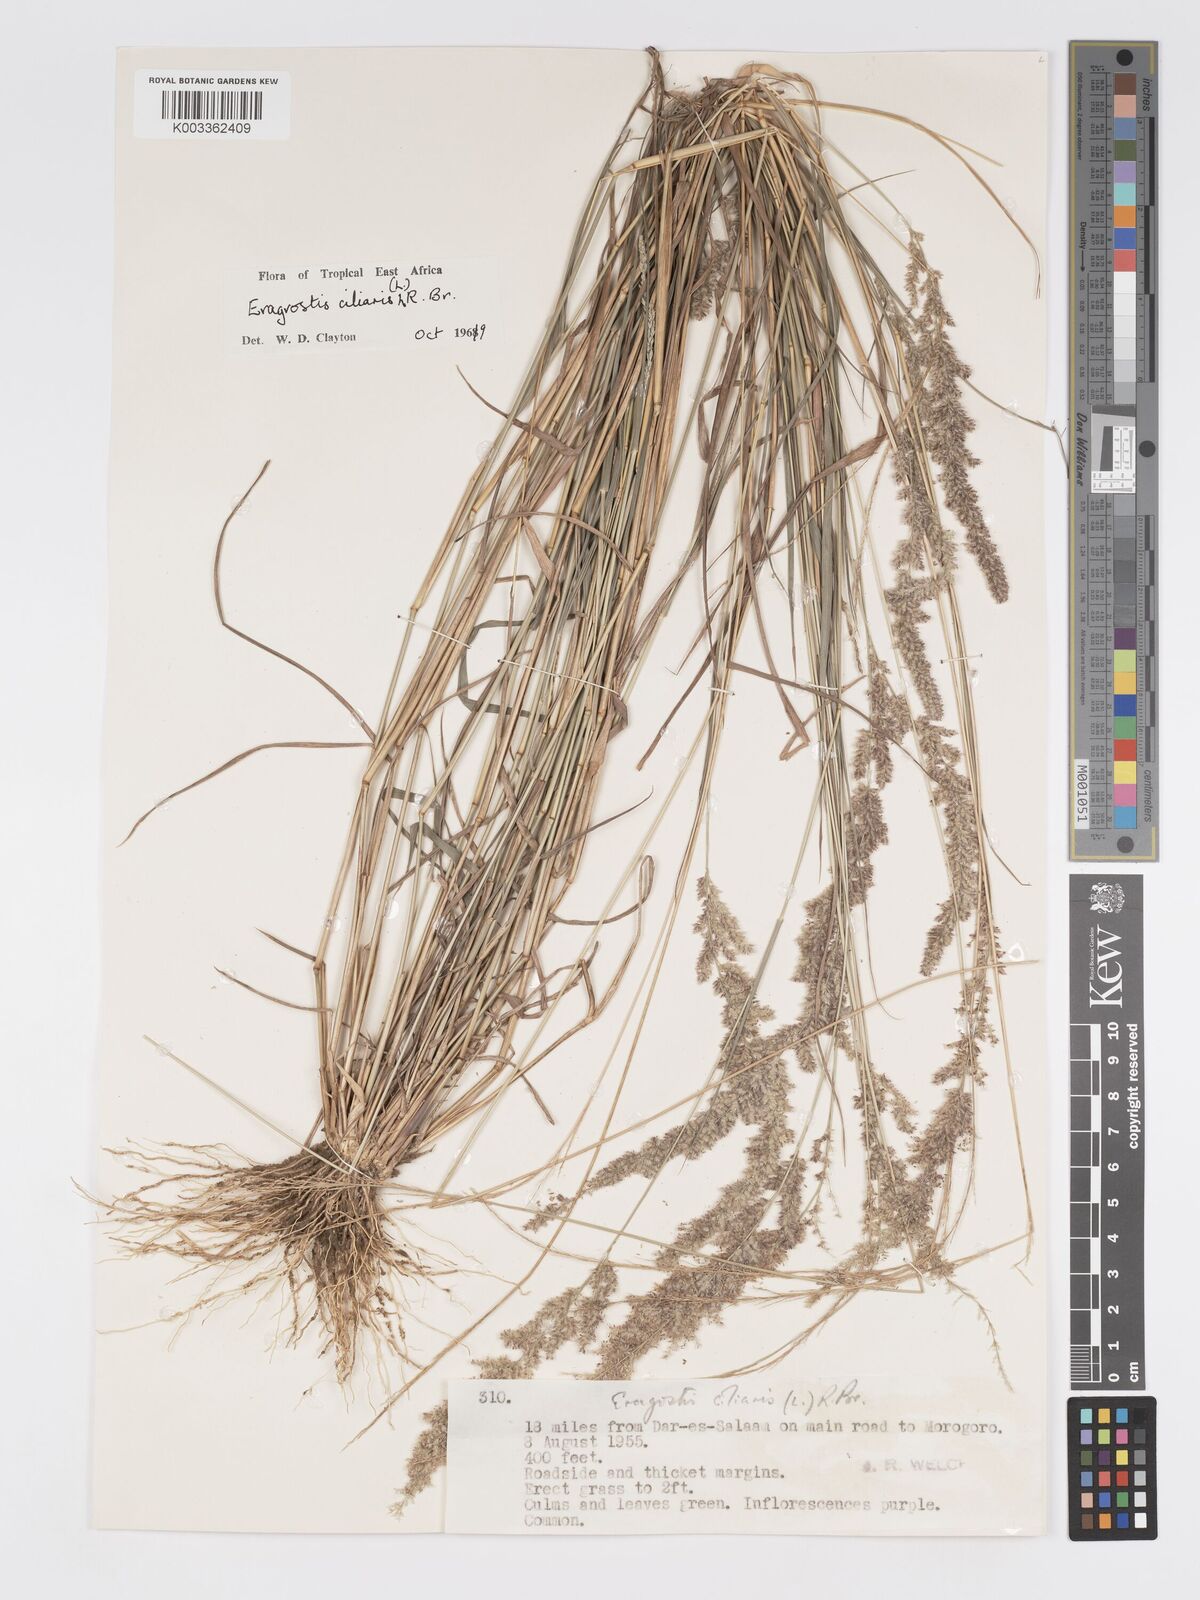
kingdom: Plantae
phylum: Tracheophyta
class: Liliopsida
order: Poales
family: Poaceae
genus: Eragrostis
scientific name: Eragrostis ciliaris
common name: Gophertail lovegrass
